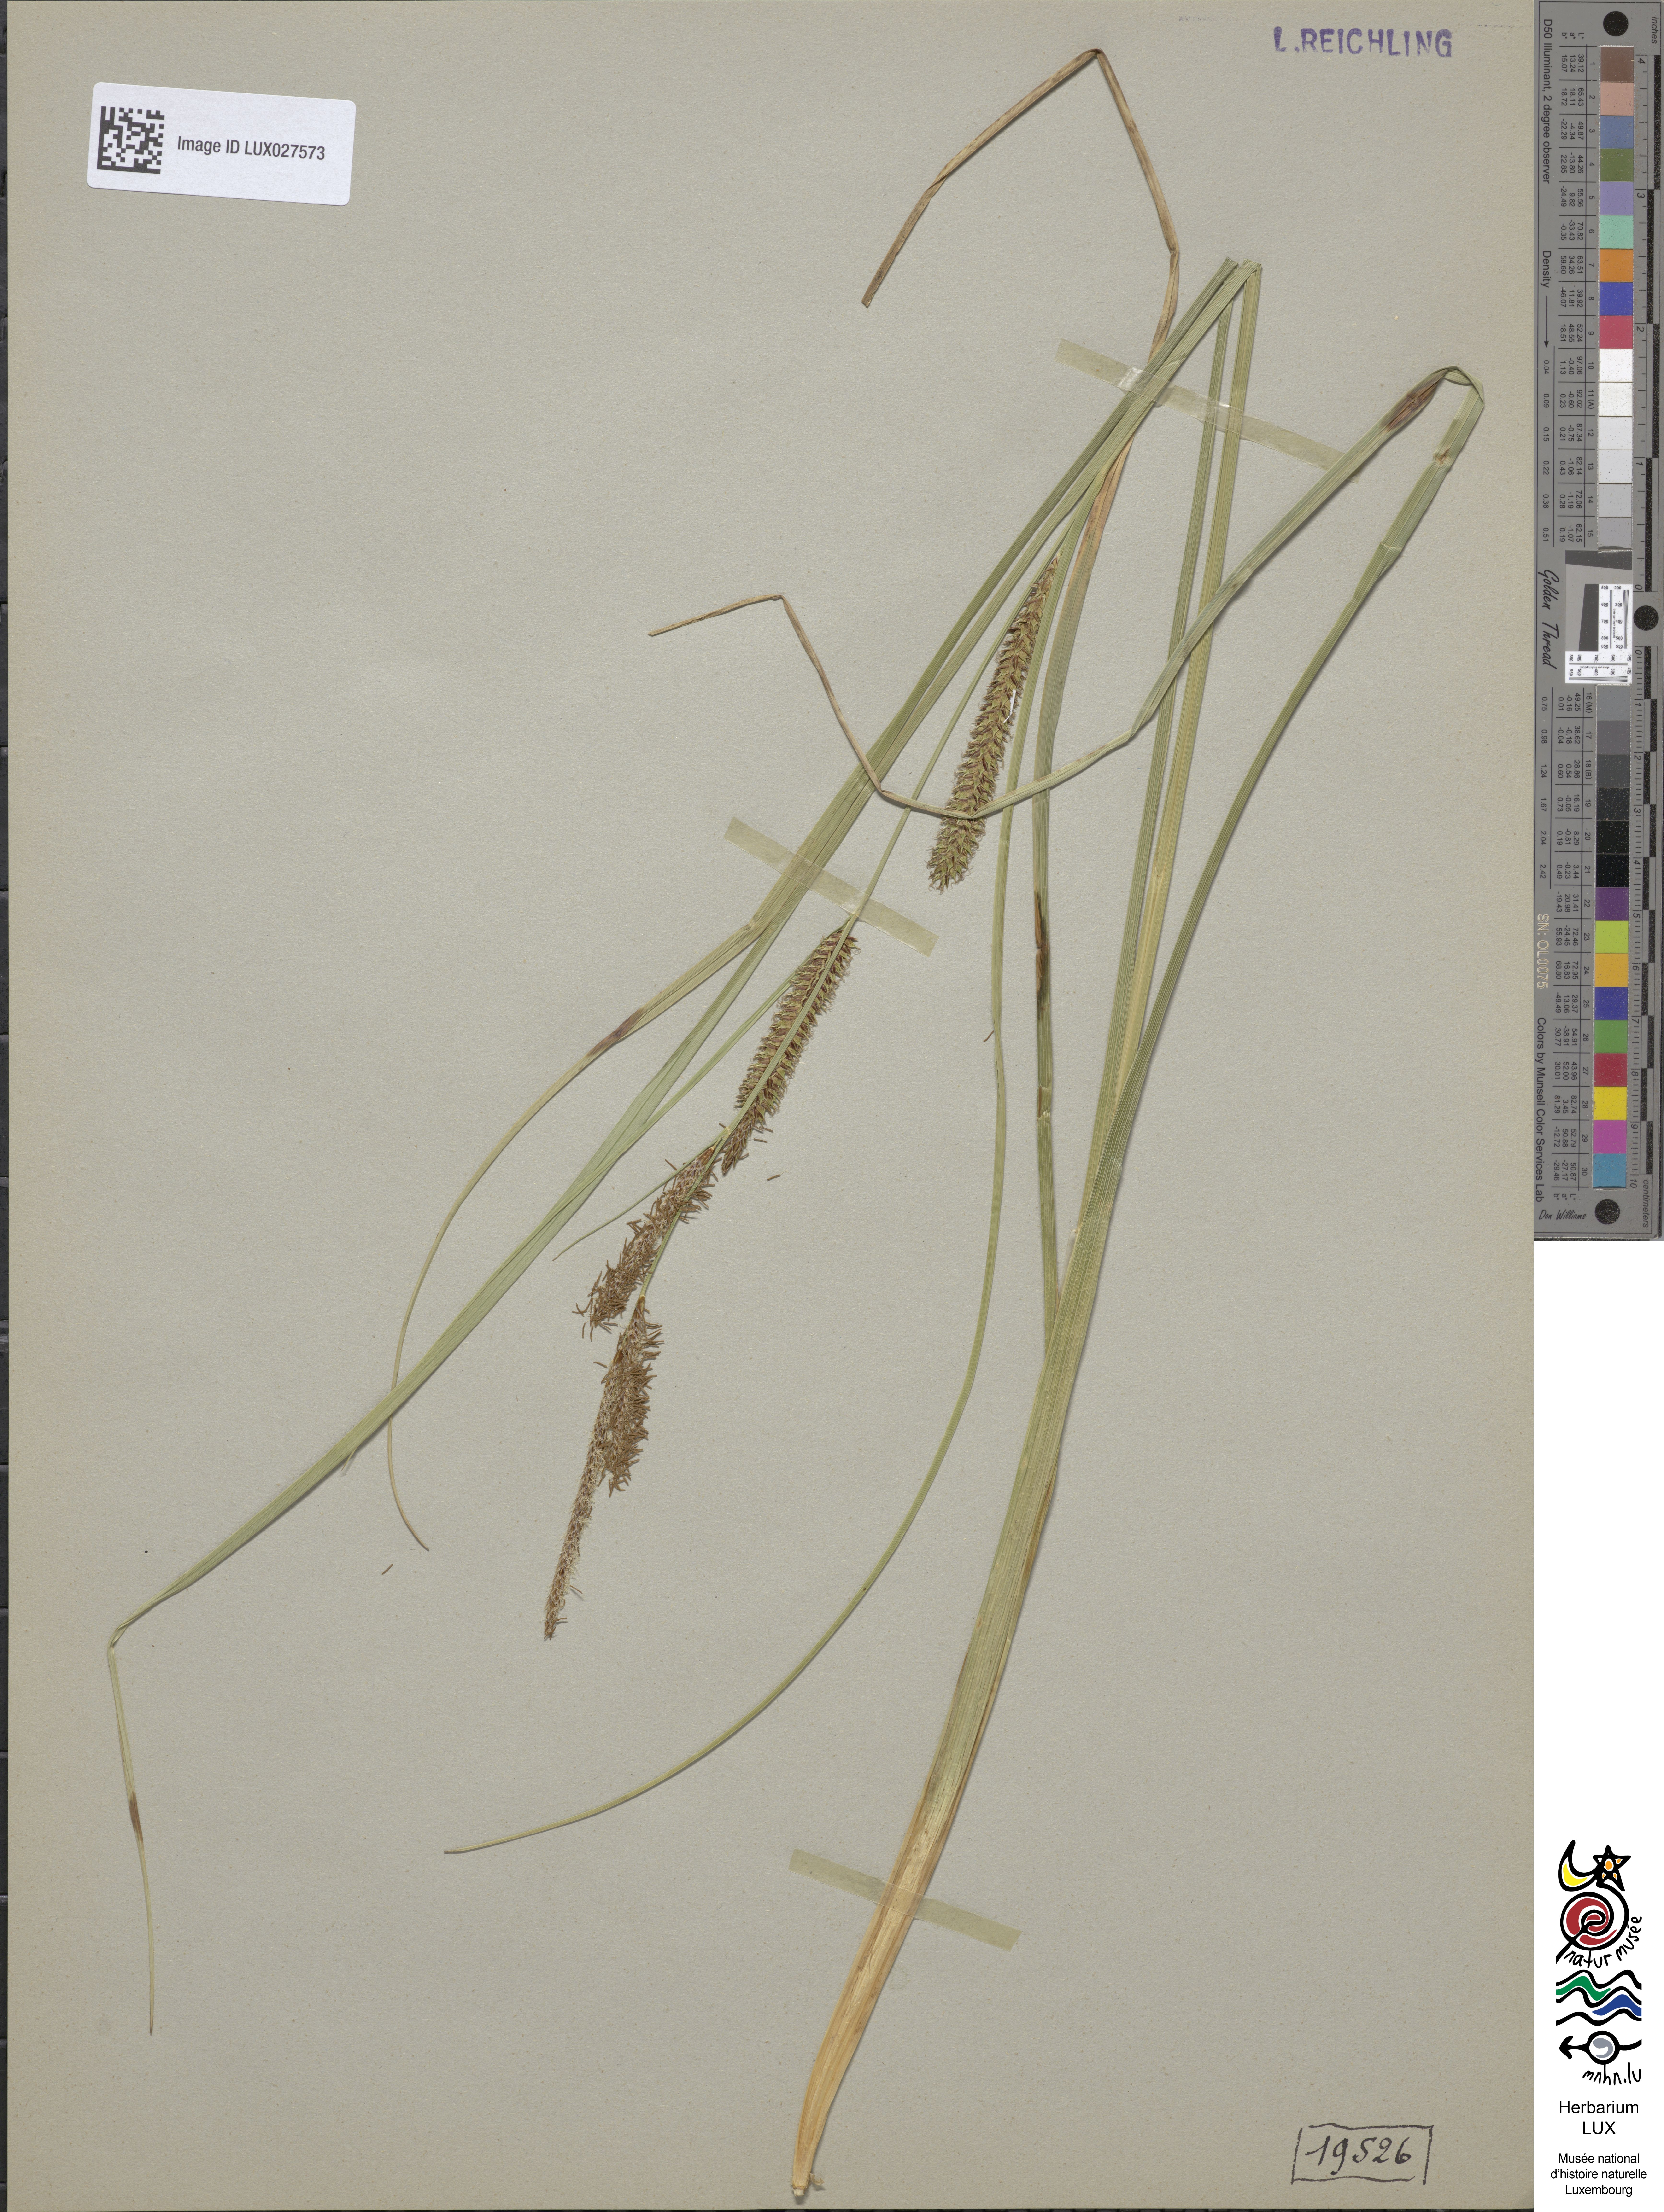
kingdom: Plantae
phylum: Tracheophyta
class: Liliopsida
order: Poales
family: Cyperaceae
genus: Carex
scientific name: Carex rostrata
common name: Bottle sedge
